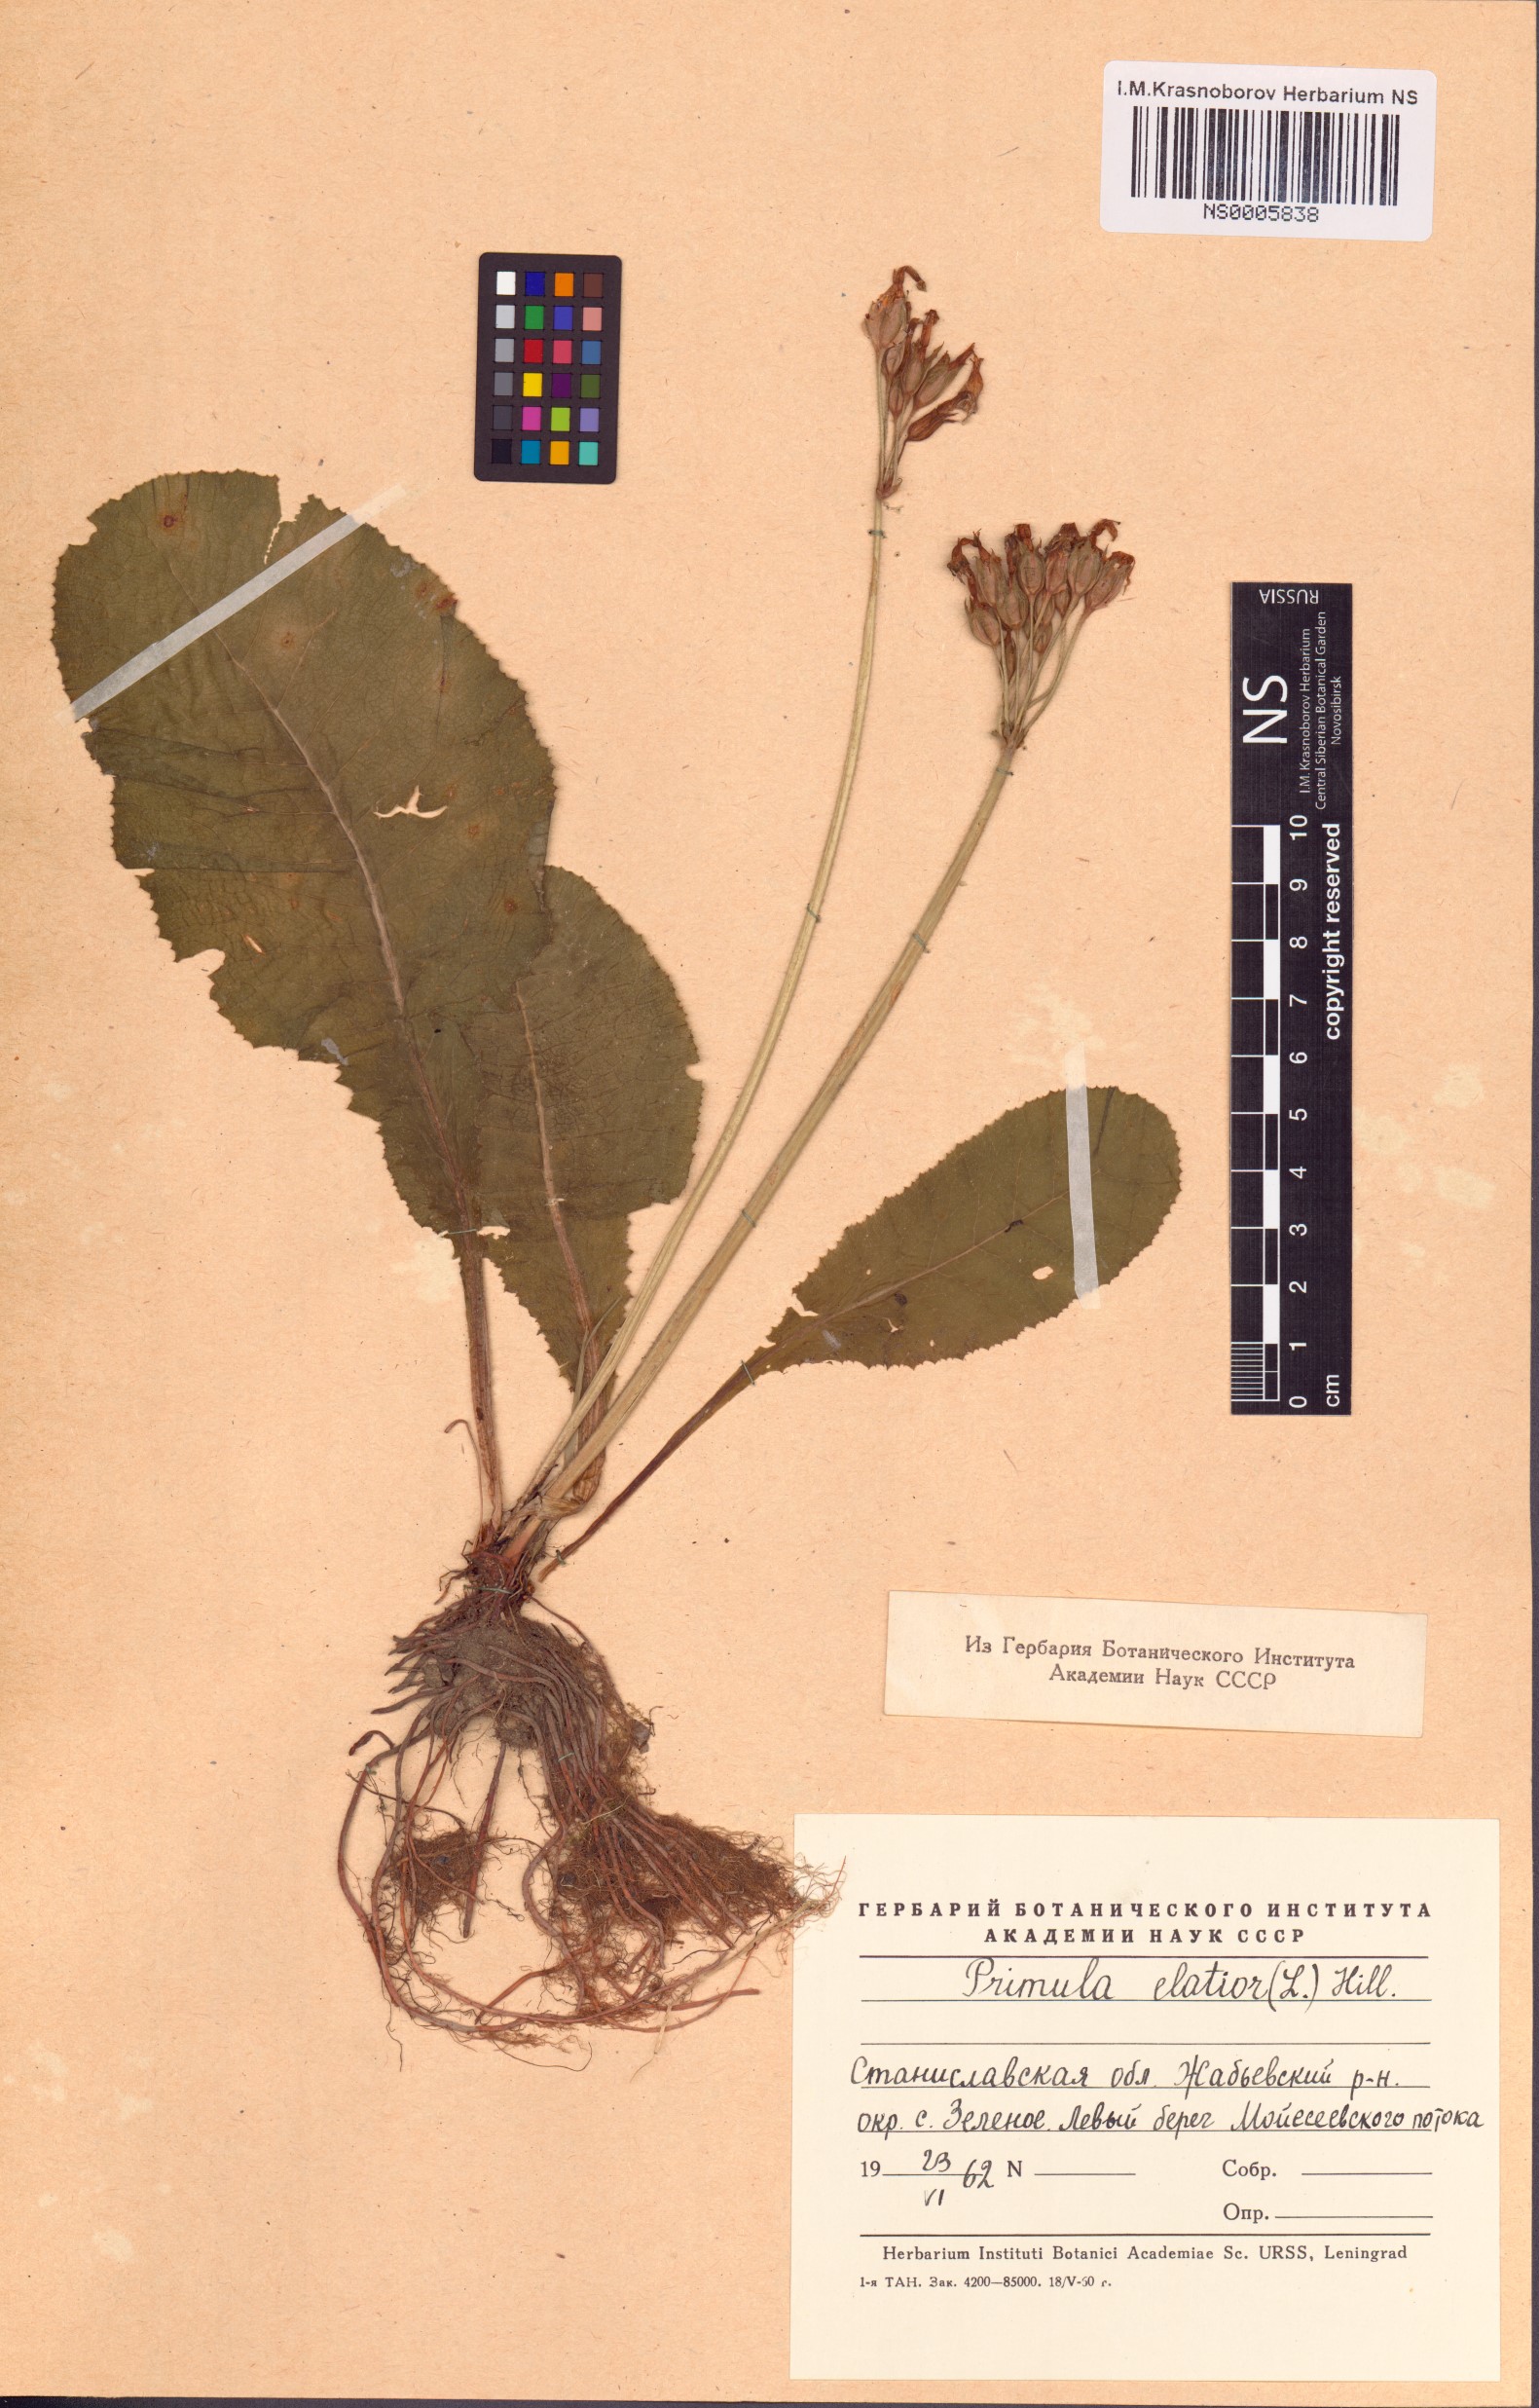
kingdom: Plantae
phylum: Tracheophyta
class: Magnoliopsida
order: Ericales
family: Primulaceae
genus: Primula
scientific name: Primula elatior
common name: Oxlip
